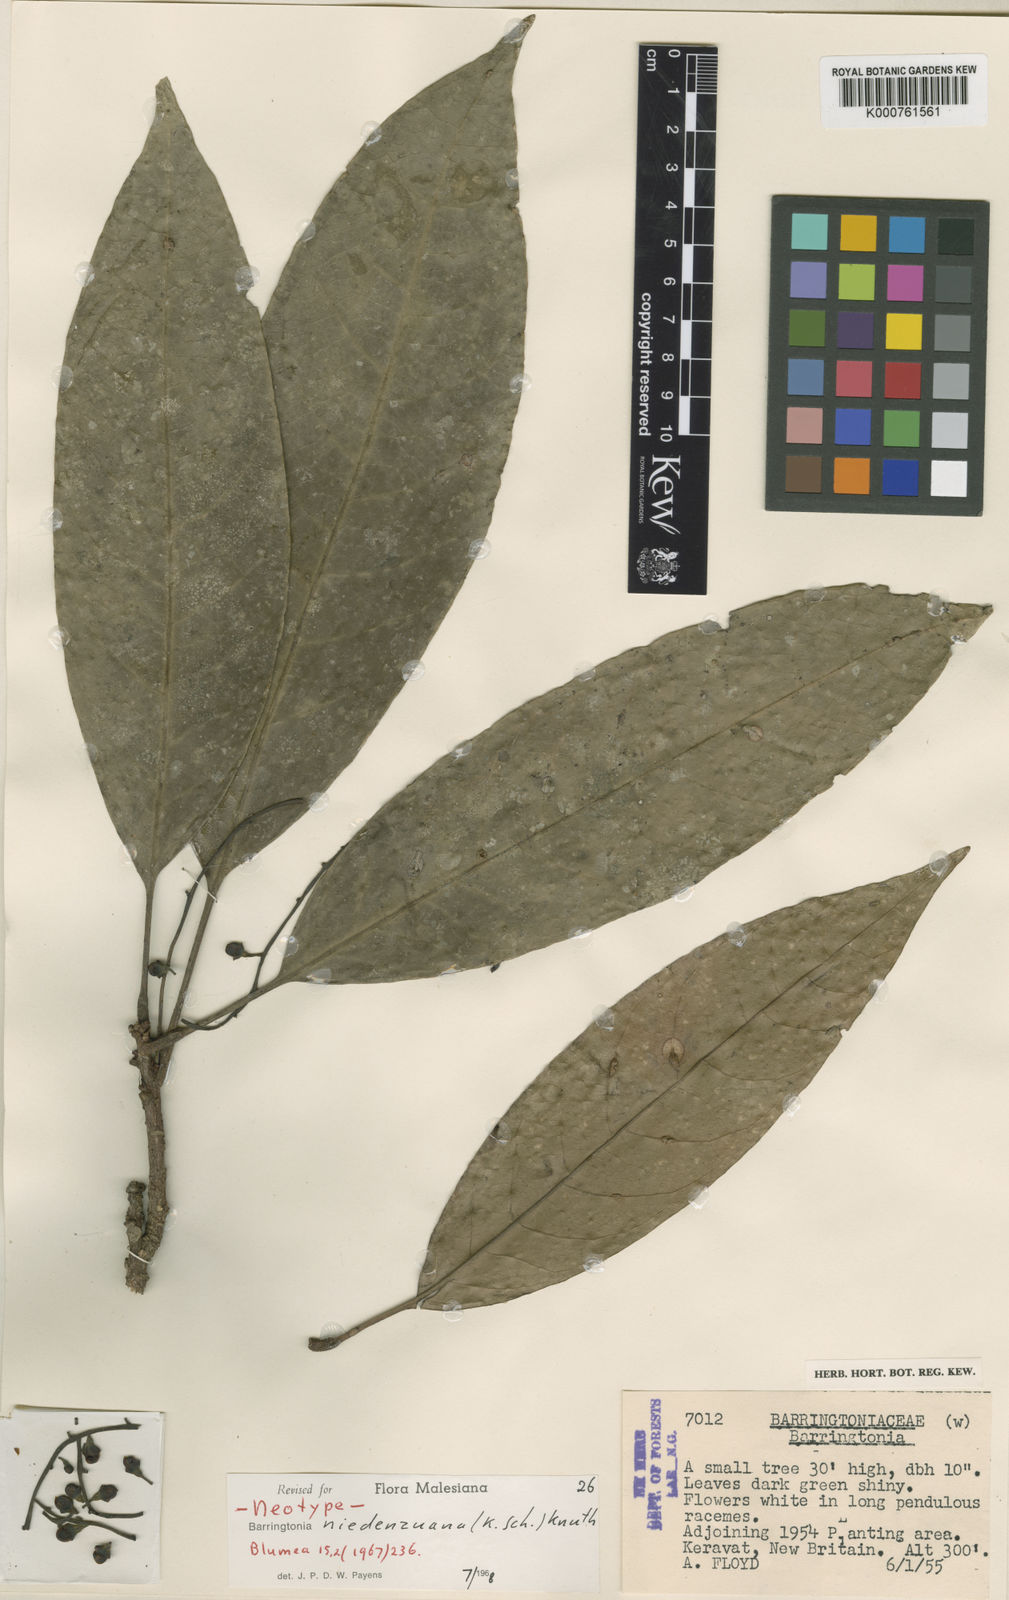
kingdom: Plantae
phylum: Tracheophyta
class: Magnoliopsida
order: Ericales
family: Lecythidaceae
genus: Barringtonia
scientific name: Barringtonia niedenzuana
